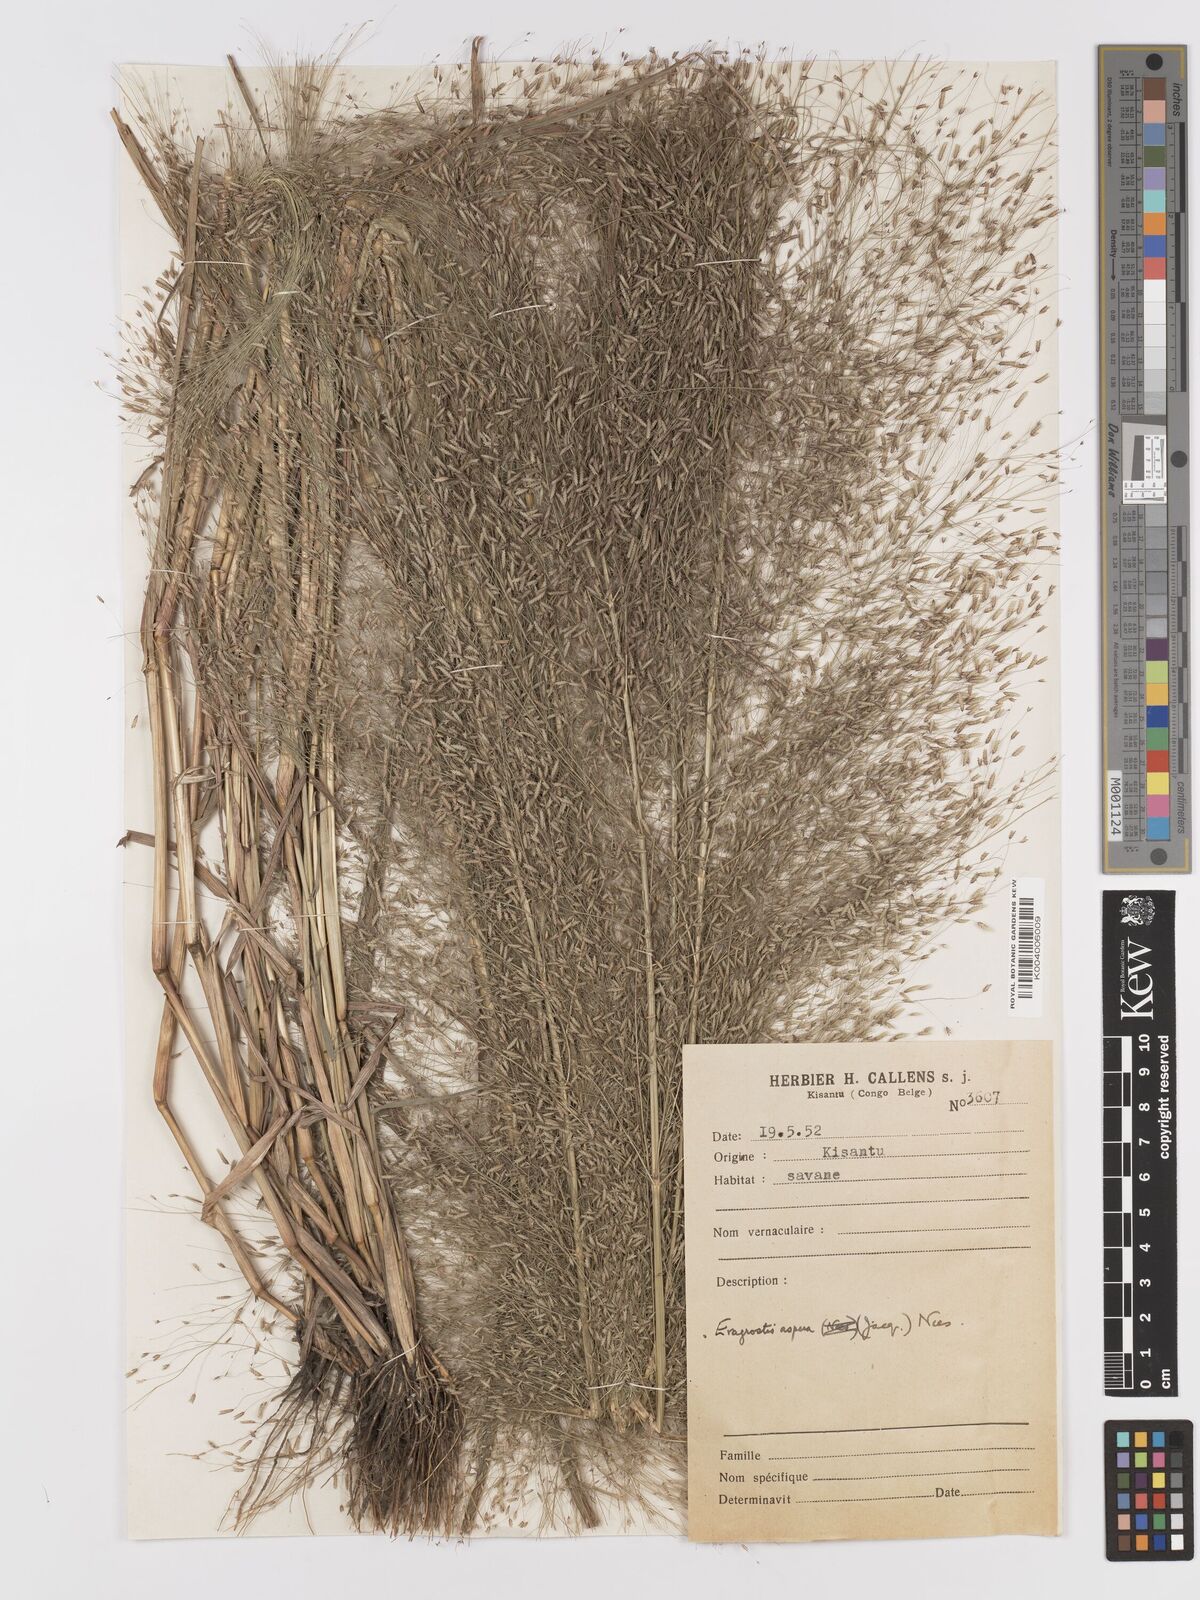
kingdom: Plantae
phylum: Tracheophyta
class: Liliopsida
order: Poales
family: Poaceae
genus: Eragrostis
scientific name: Eragrostis aspera
